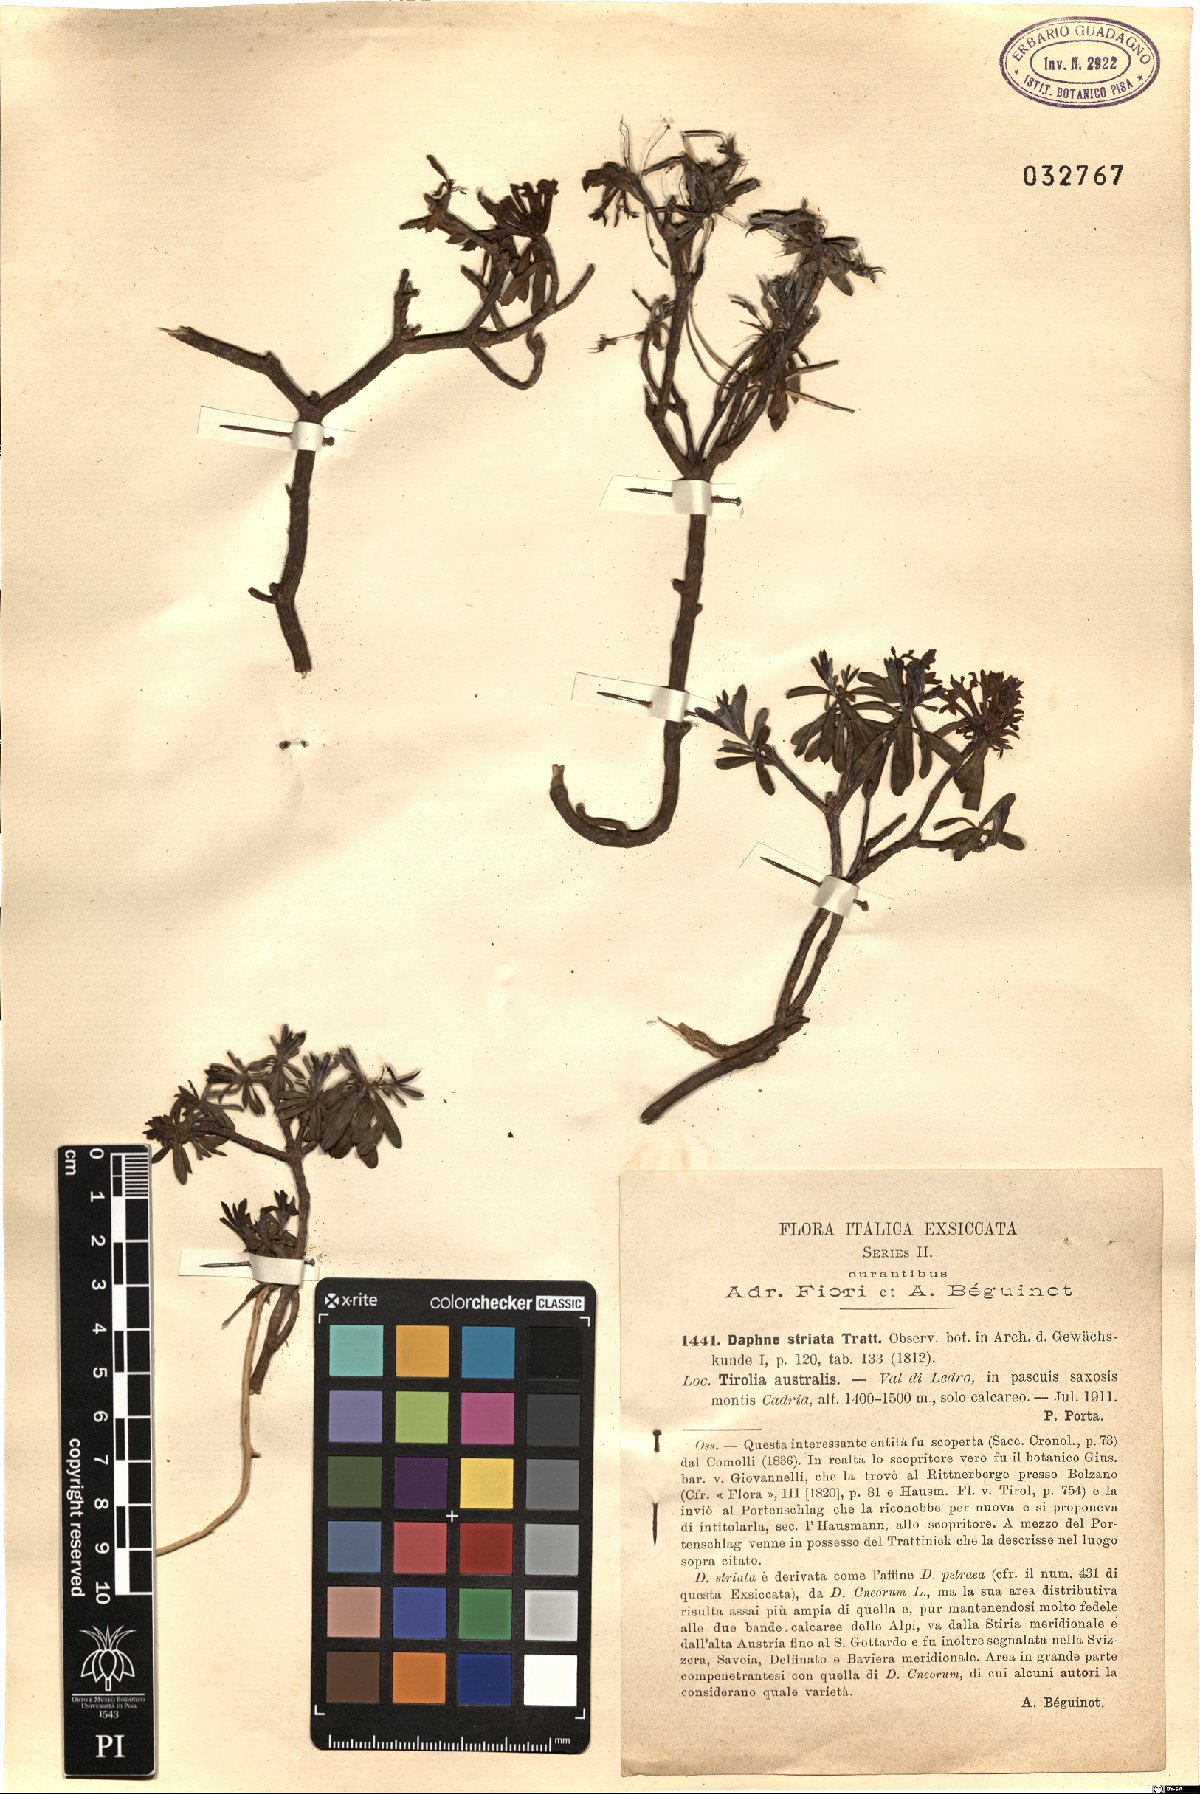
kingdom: Plantae
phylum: Tracheophyta
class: Magnoliopsida
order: Malvales
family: Thymelaeaceae
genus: Daphne
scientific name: Daphne striata
